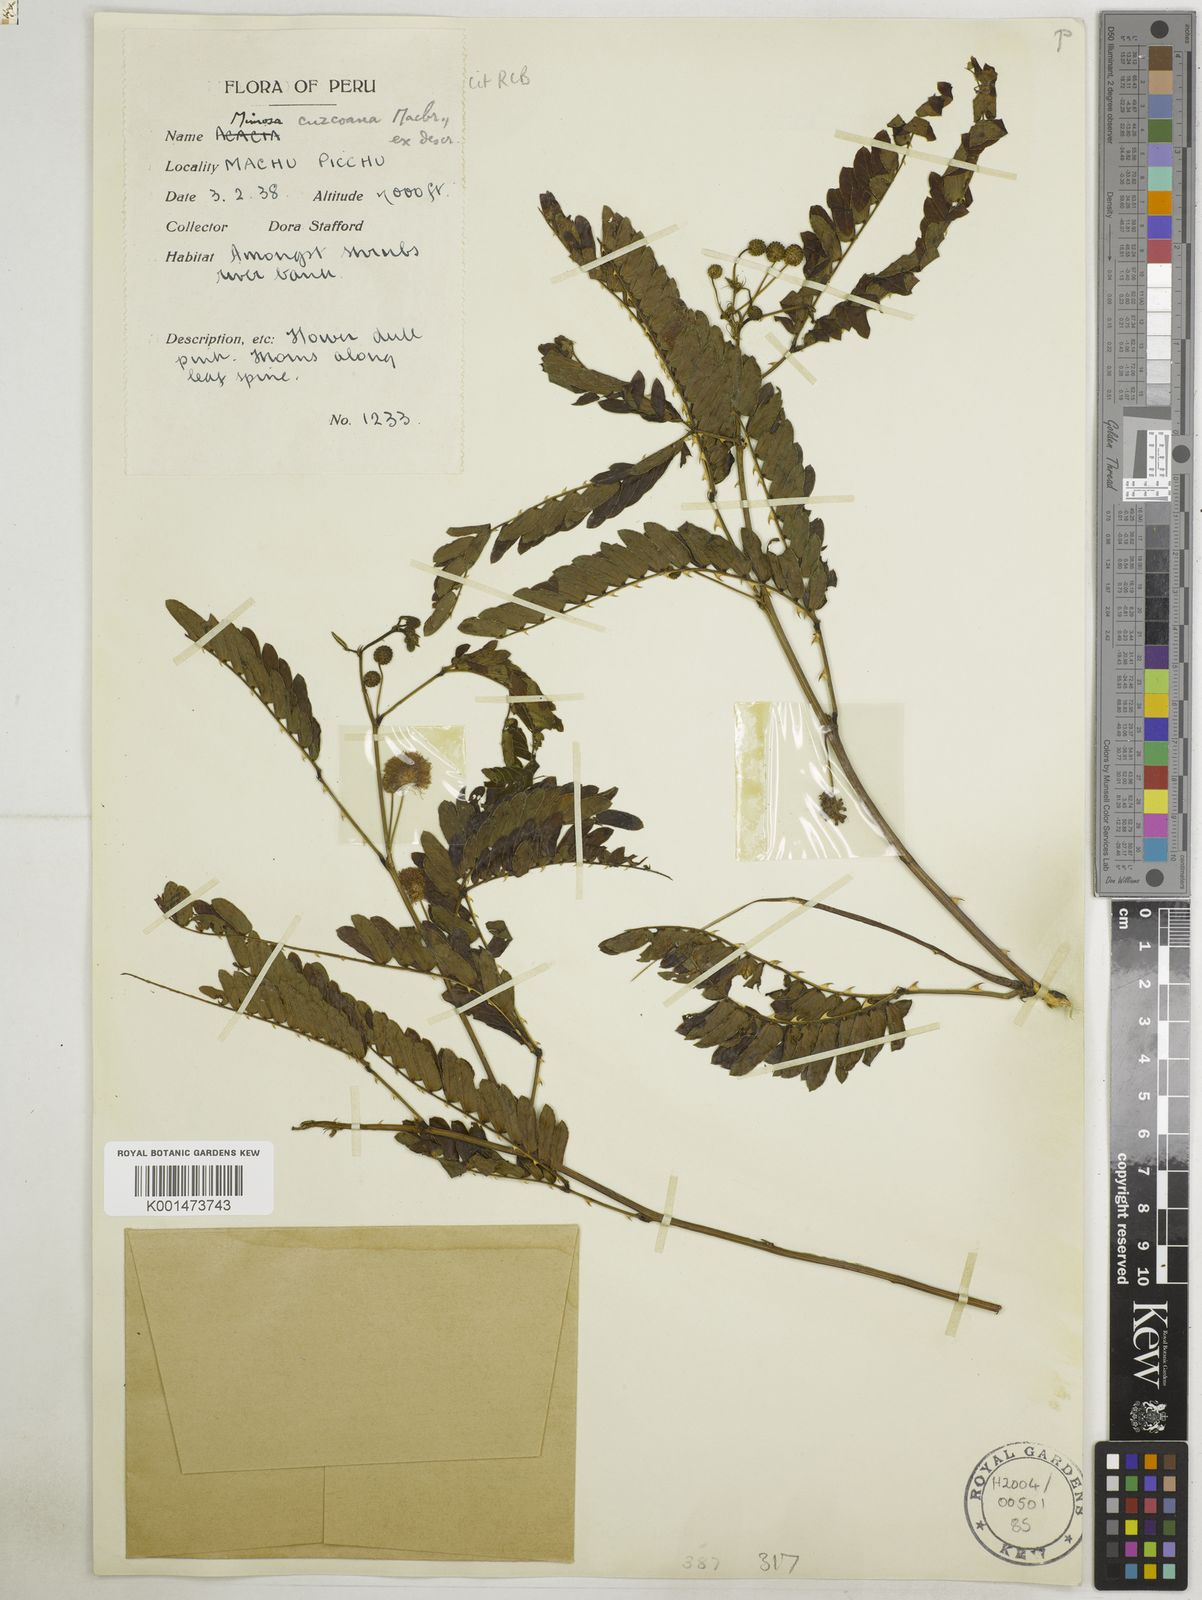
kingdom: Plantae
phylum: Tracheophyta
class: Magnoliopsida
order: Fabales
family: Fabaceae
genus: Mimosa
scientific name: Mimosa cuzcoana
